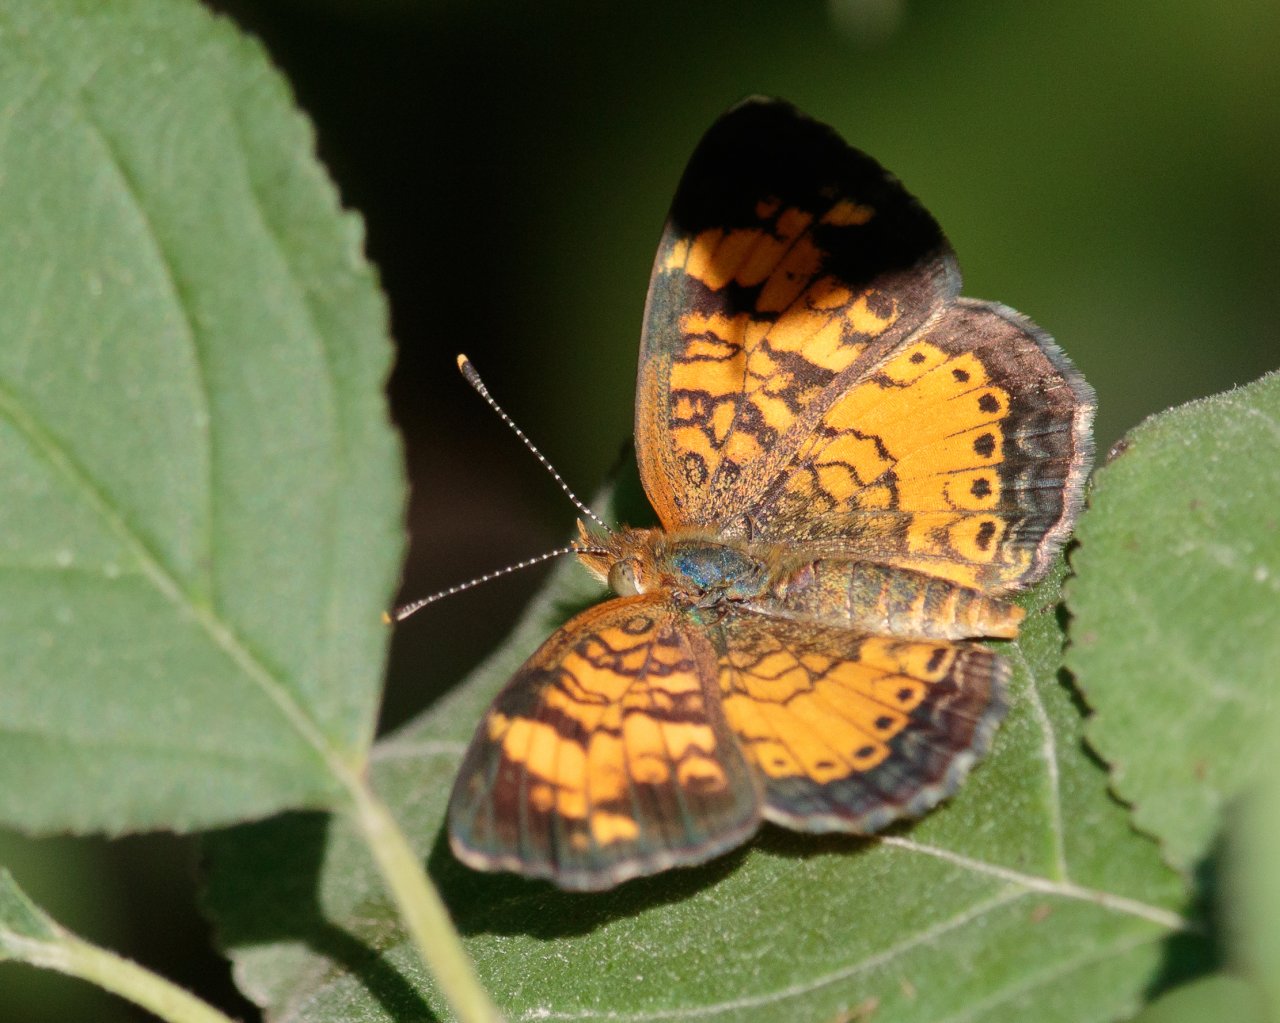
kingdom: Animalia
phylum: Arthropoda
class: Insecta
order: Lepidoptera
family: Nymphalidae
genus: Phyciodes
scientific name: Phyciodes tharos
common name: Northern Crescent
